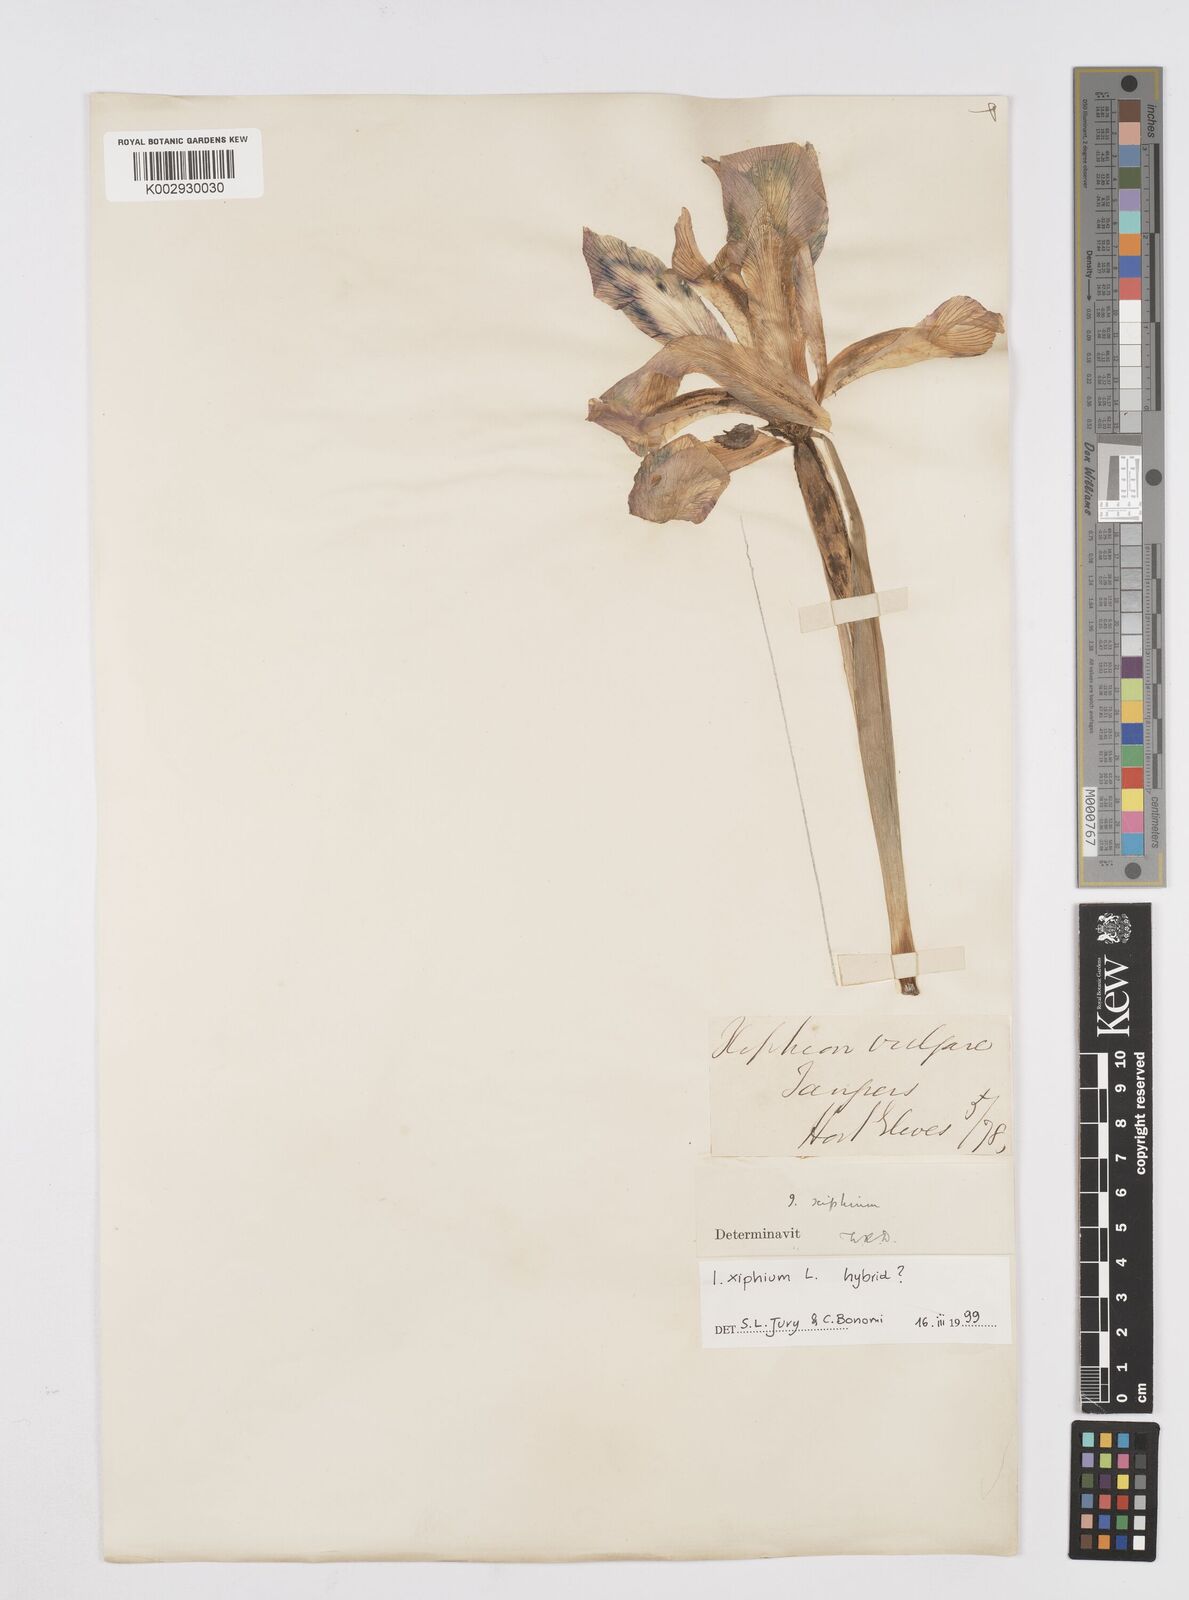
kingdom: Plantae
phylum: Tracheophyta
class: Liliopsida
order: Asparagales
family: Iridaceae
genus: Iris
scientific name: Iris xiphium
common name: Spanish iris
